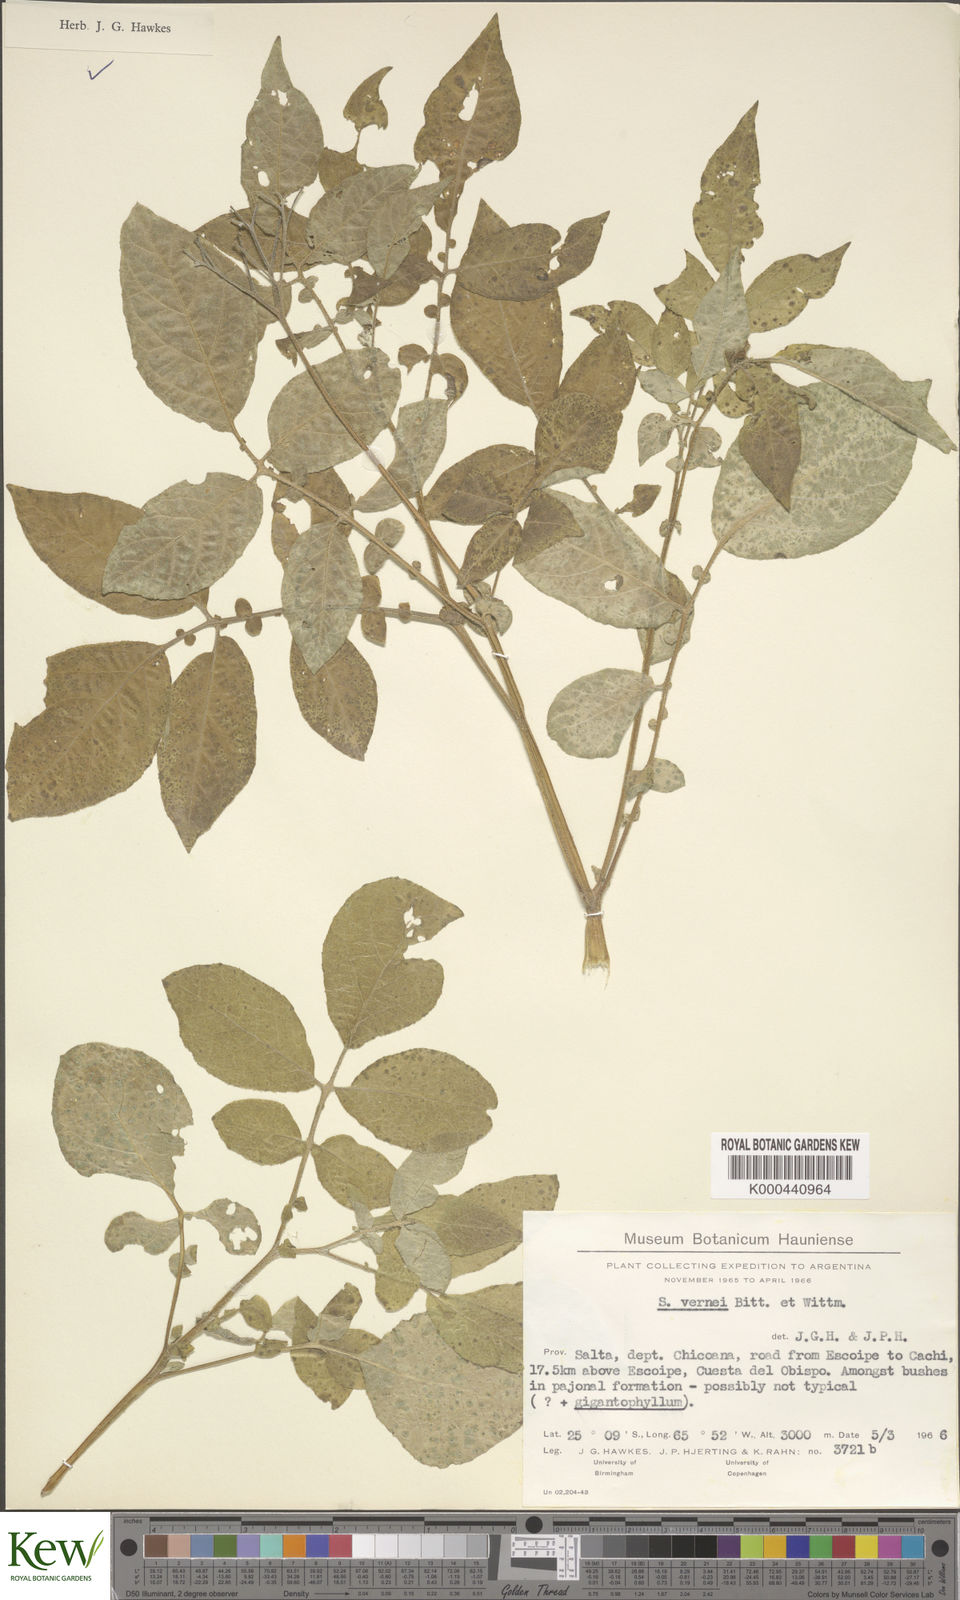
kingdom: Plantae
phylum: Tracheophyta
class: Magnoliopsida
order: Solanales
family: Solanaceae
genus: Solanum
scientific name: Solanum vernei
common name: Purple potato
